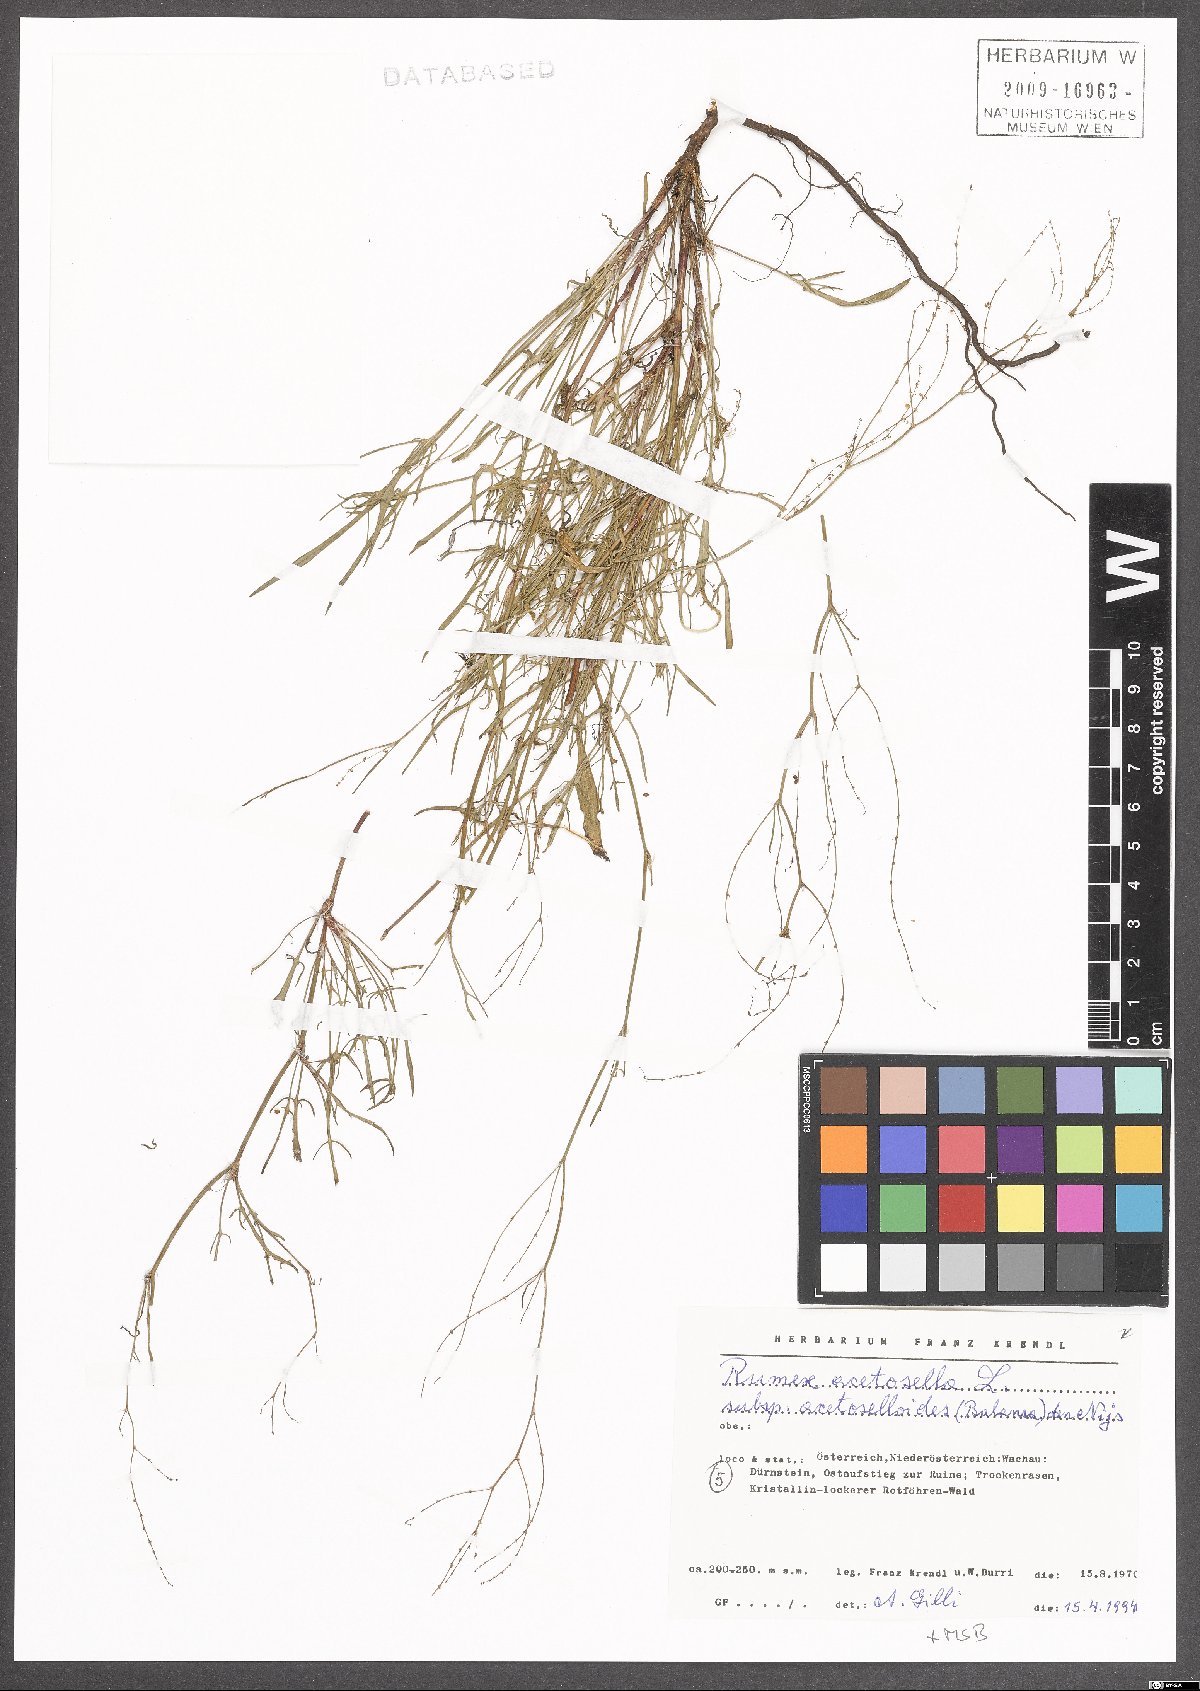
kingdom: Plantae
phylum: Tracheophyta
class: Magnoliopsida
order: Caryophyllales
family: Polygonaceae
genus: Rumex
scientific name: Rumex acetosella
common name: Common sheep sorrel
